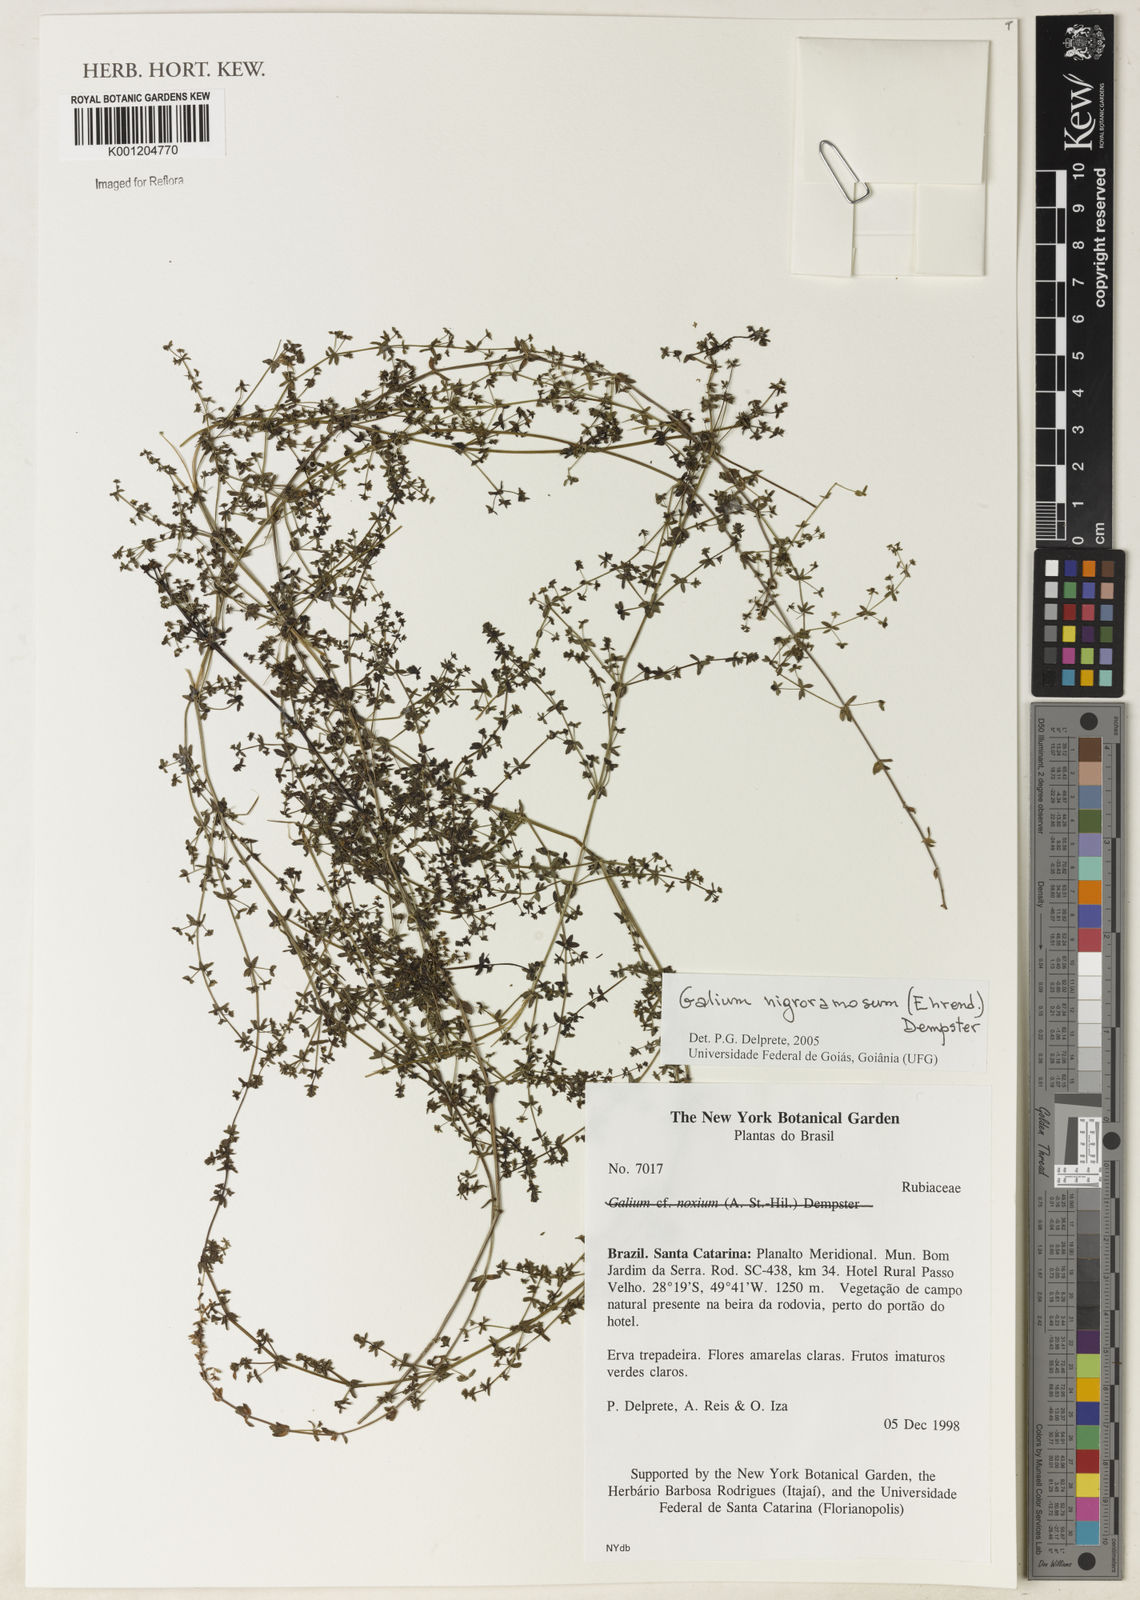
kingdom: Plantae
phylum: Tracheophyta
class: Magnoliopsida
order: Gentianales
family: Rubiaceae
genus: Galium
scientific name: Galium nigroramosum
